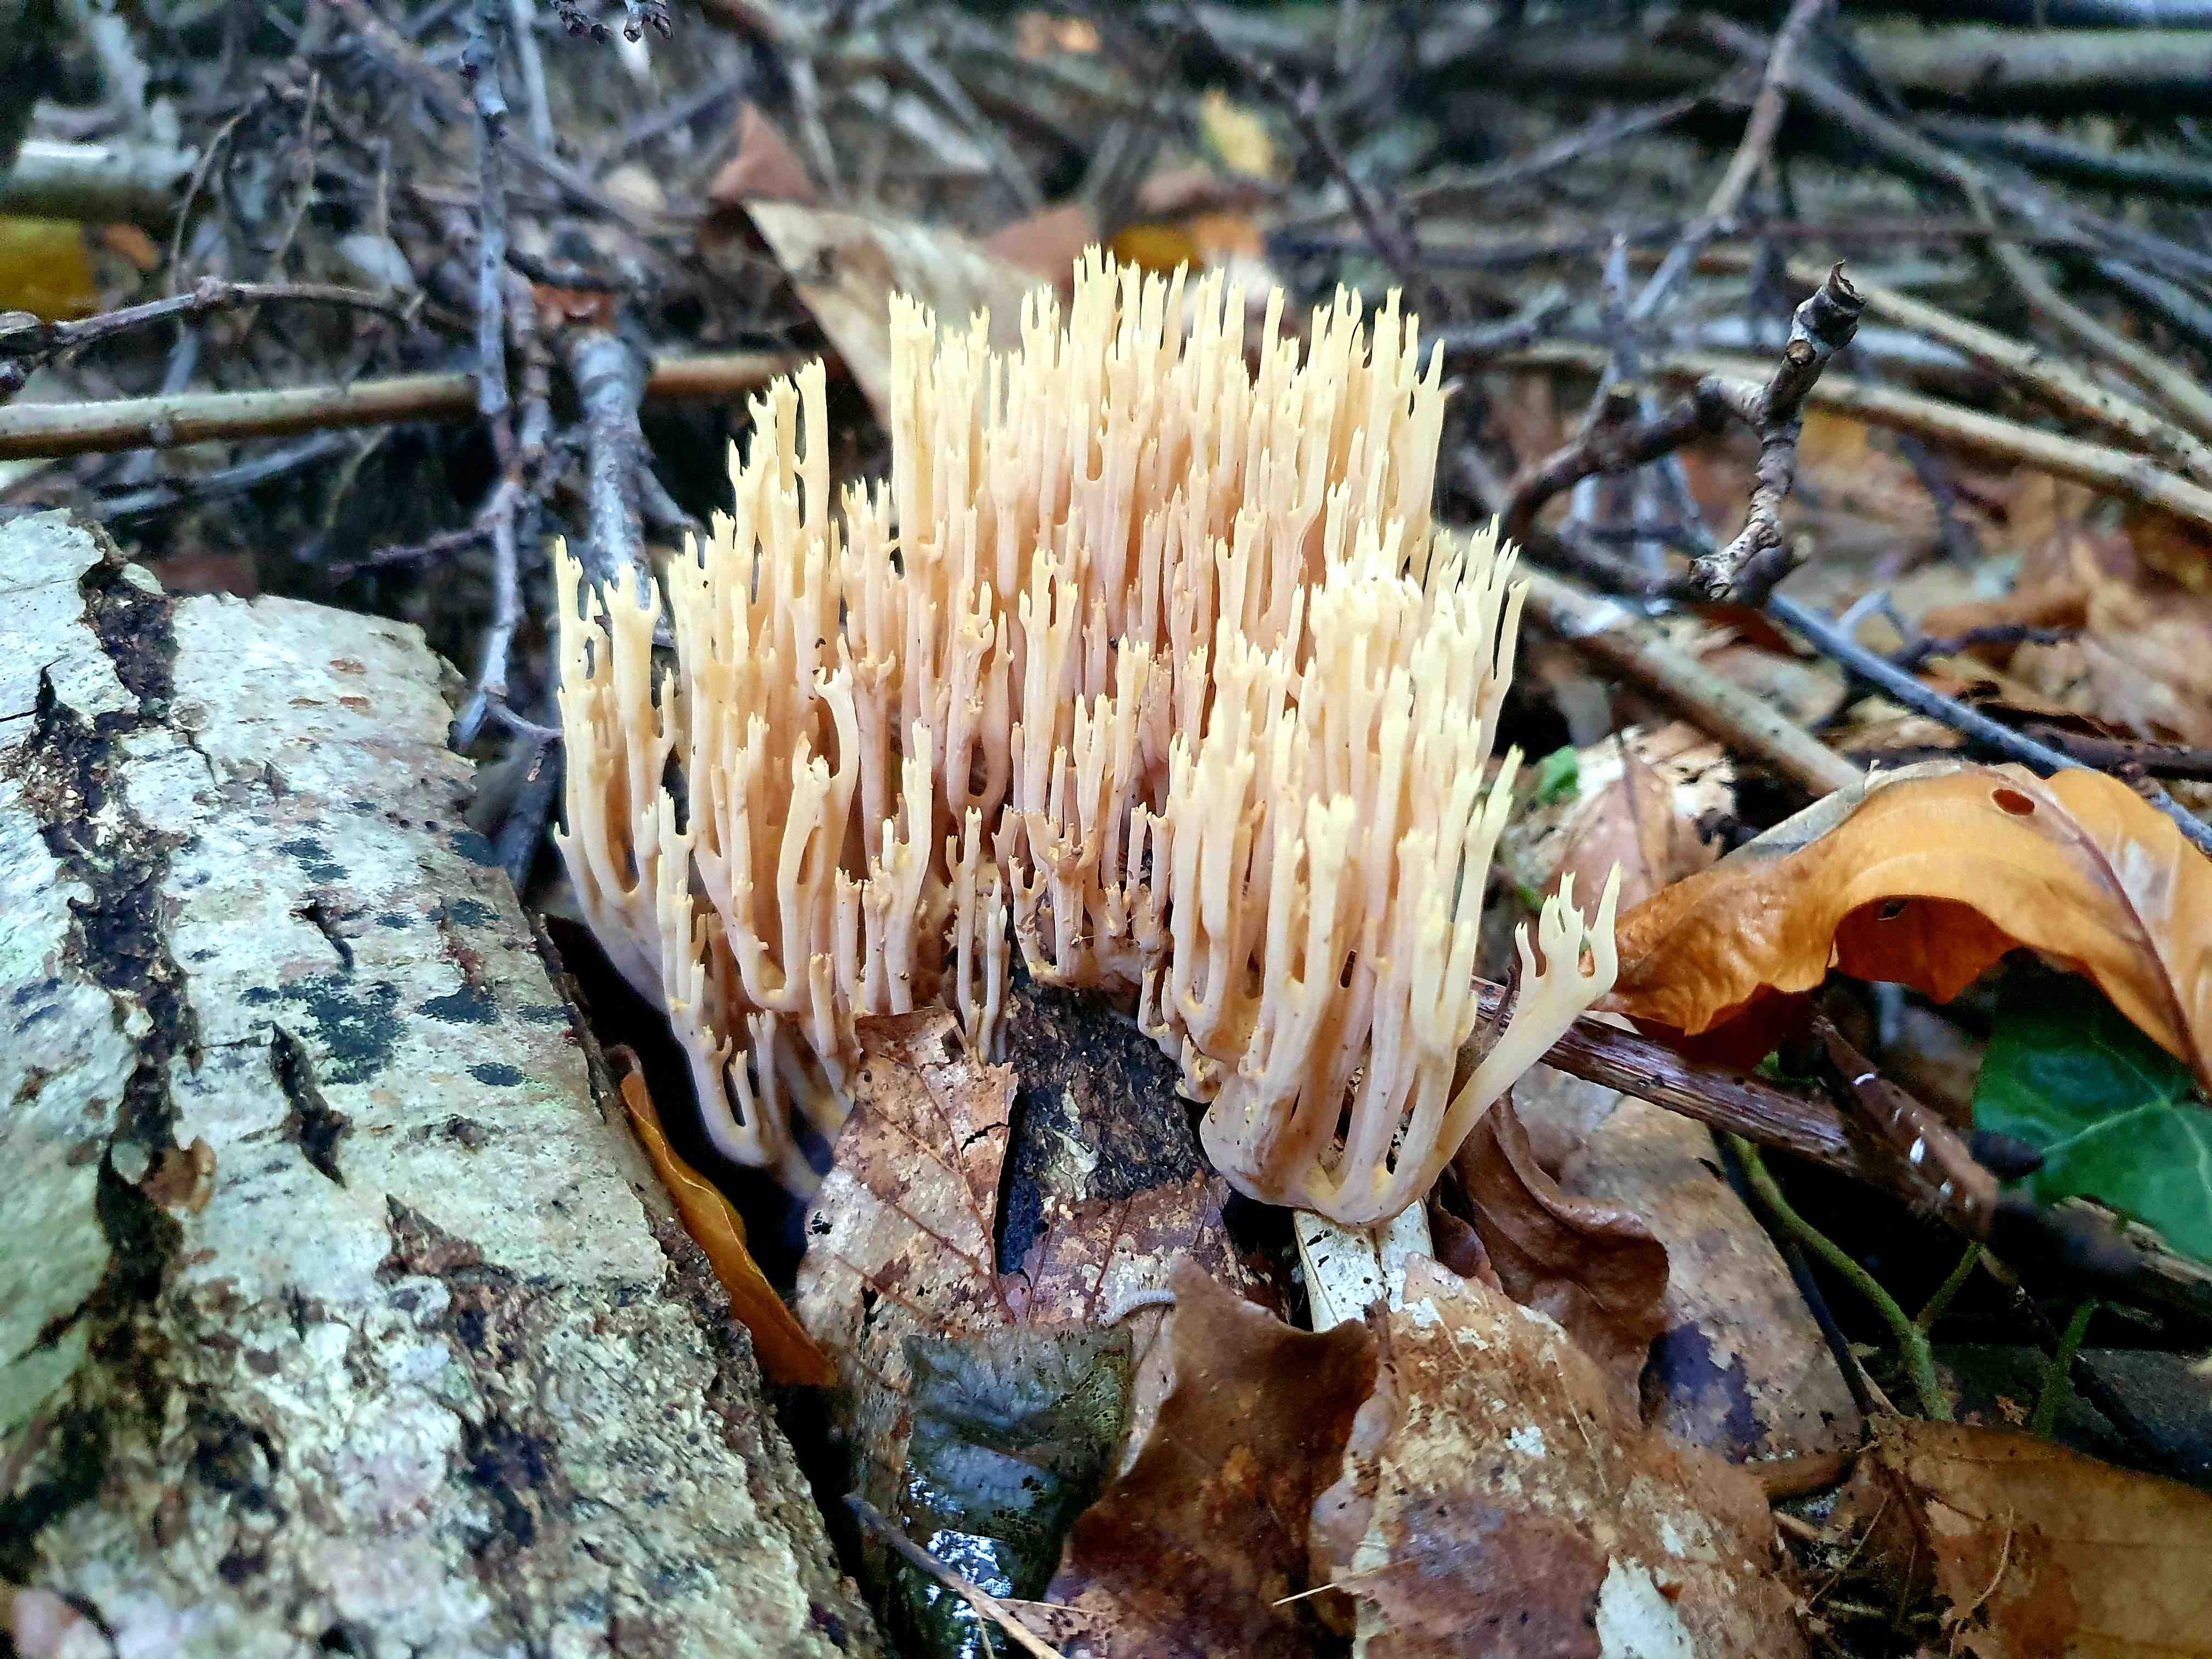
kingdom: Fungi
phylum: Basidiomycota
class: Agaricomycetes
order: Gomphales
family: Gomphaceae
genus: Ramaria
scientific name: Ramaria stricta
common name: rank koralsvamp
